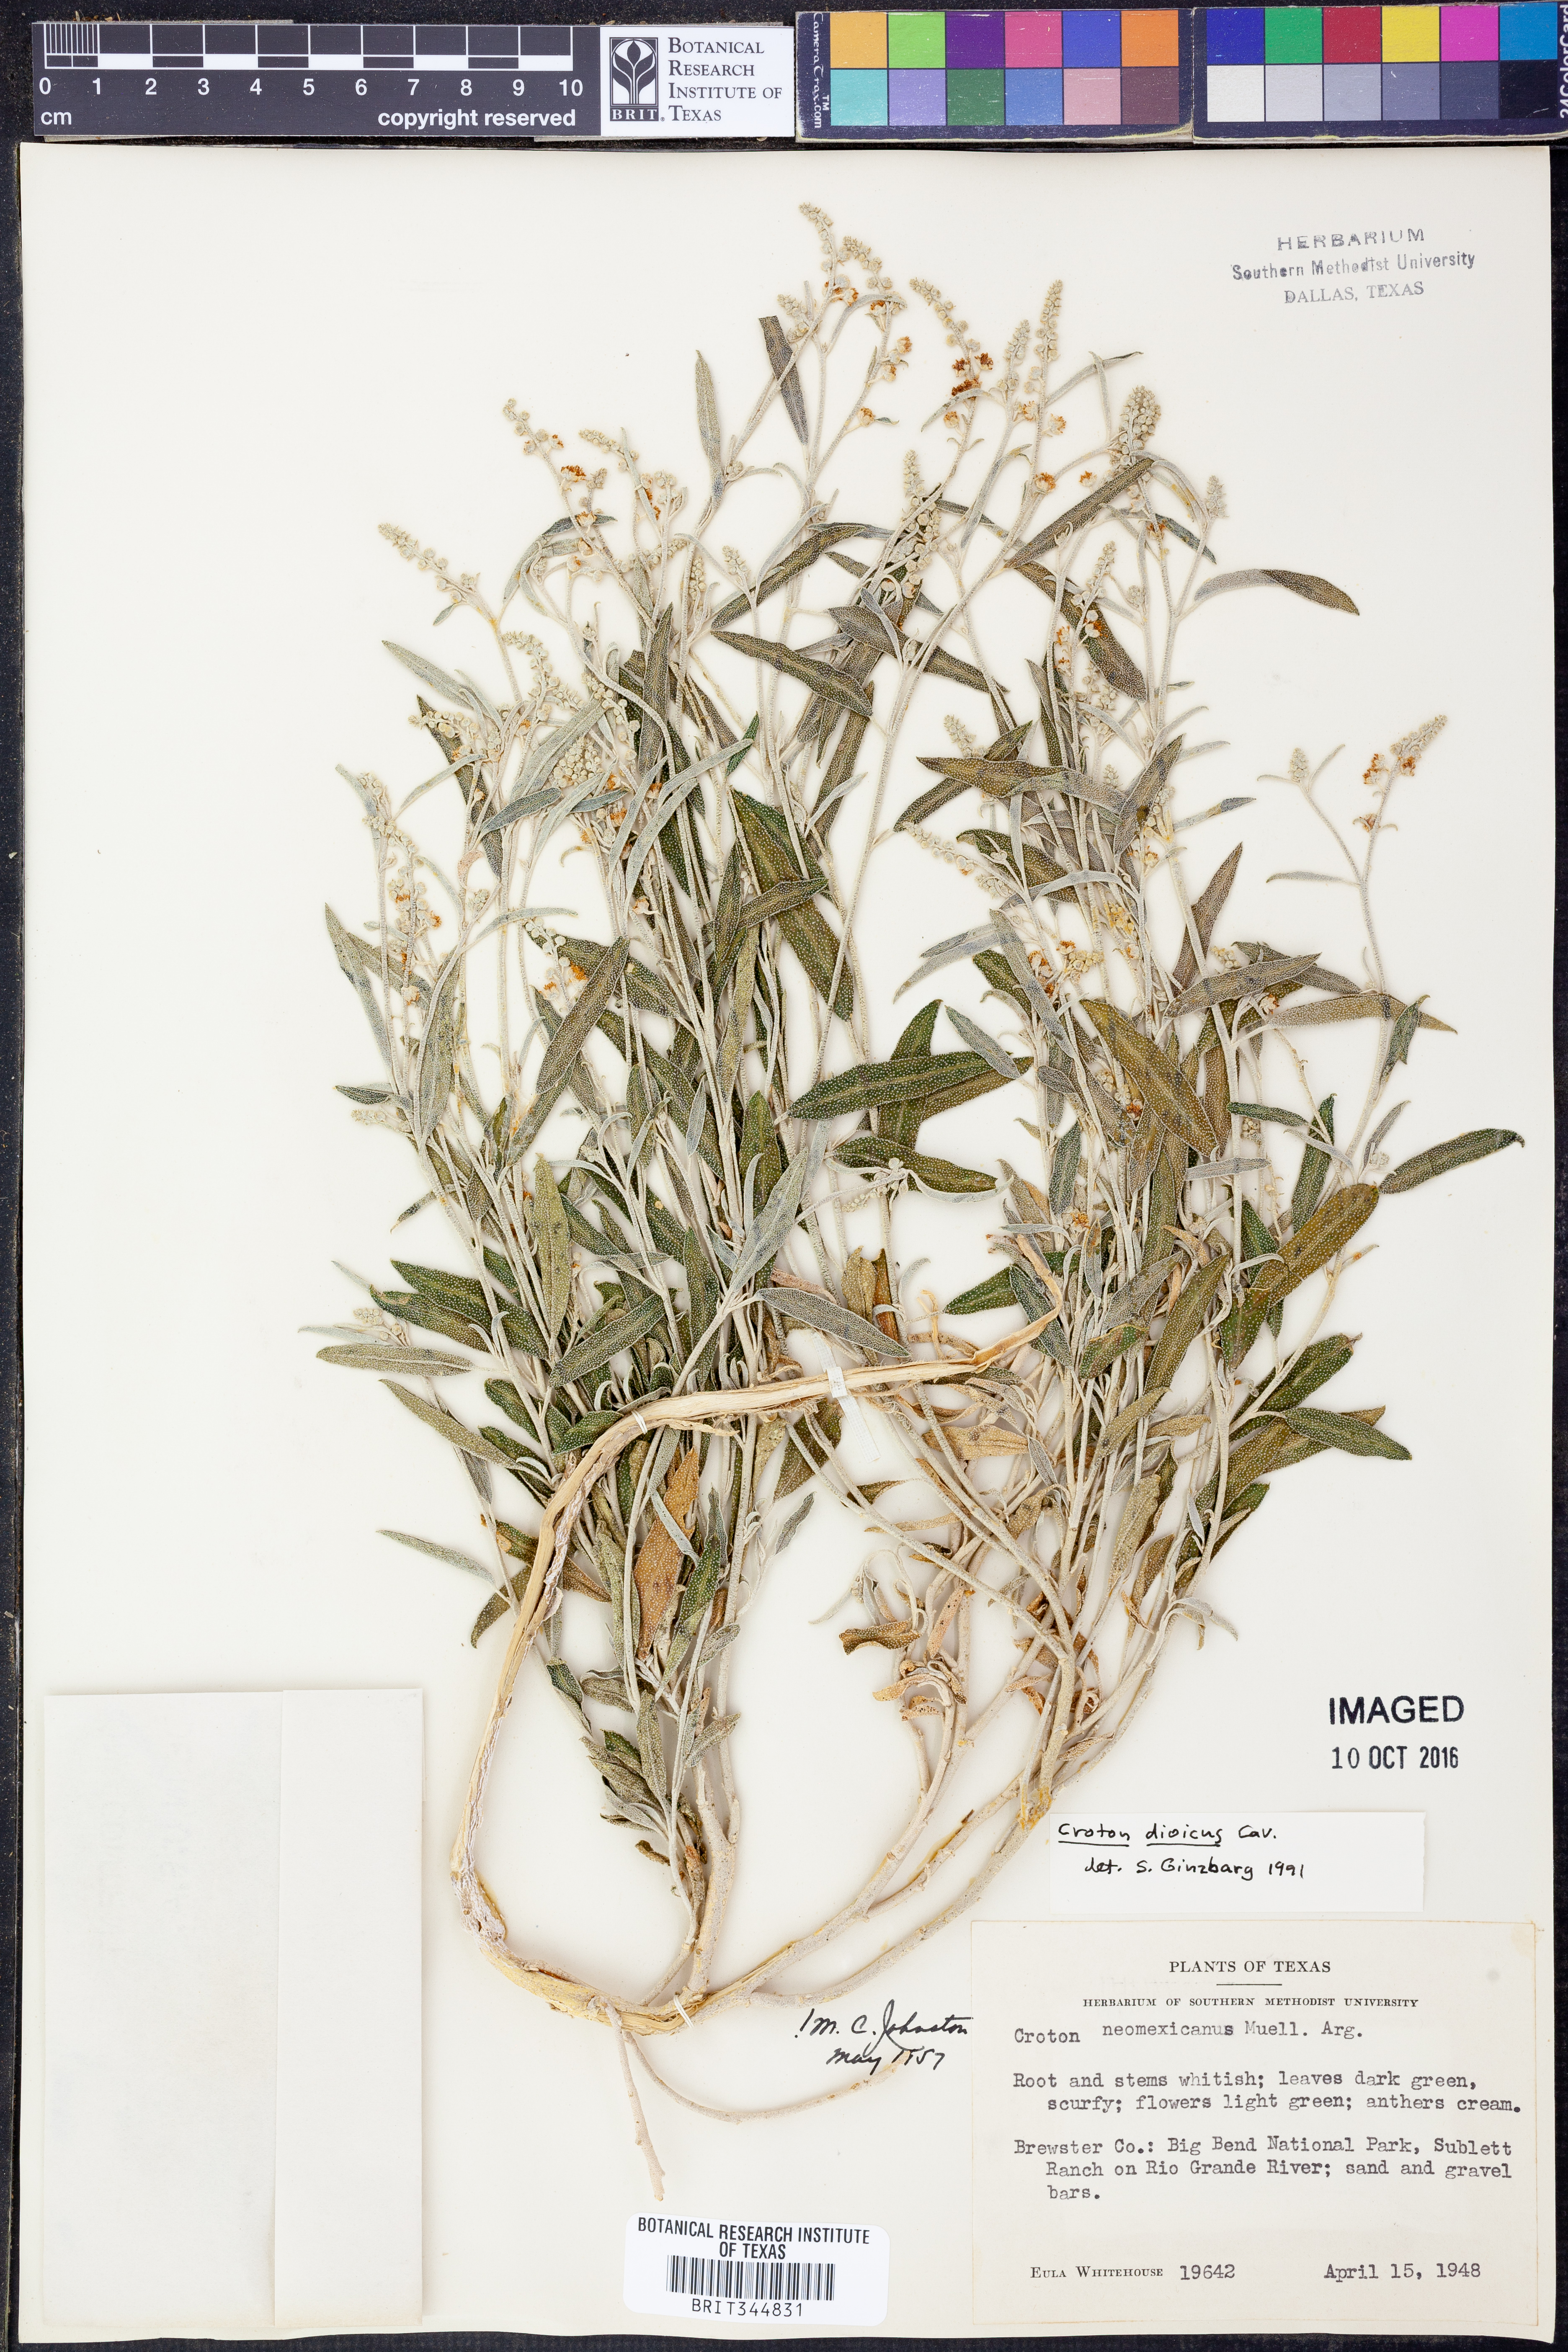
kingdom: Plantae
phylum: Tracheophyta
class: Magnoliopsida
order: Malpighiales
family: Euphorbiaceae
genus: Croton
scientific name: Croton dioicus
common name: Grassland croton
